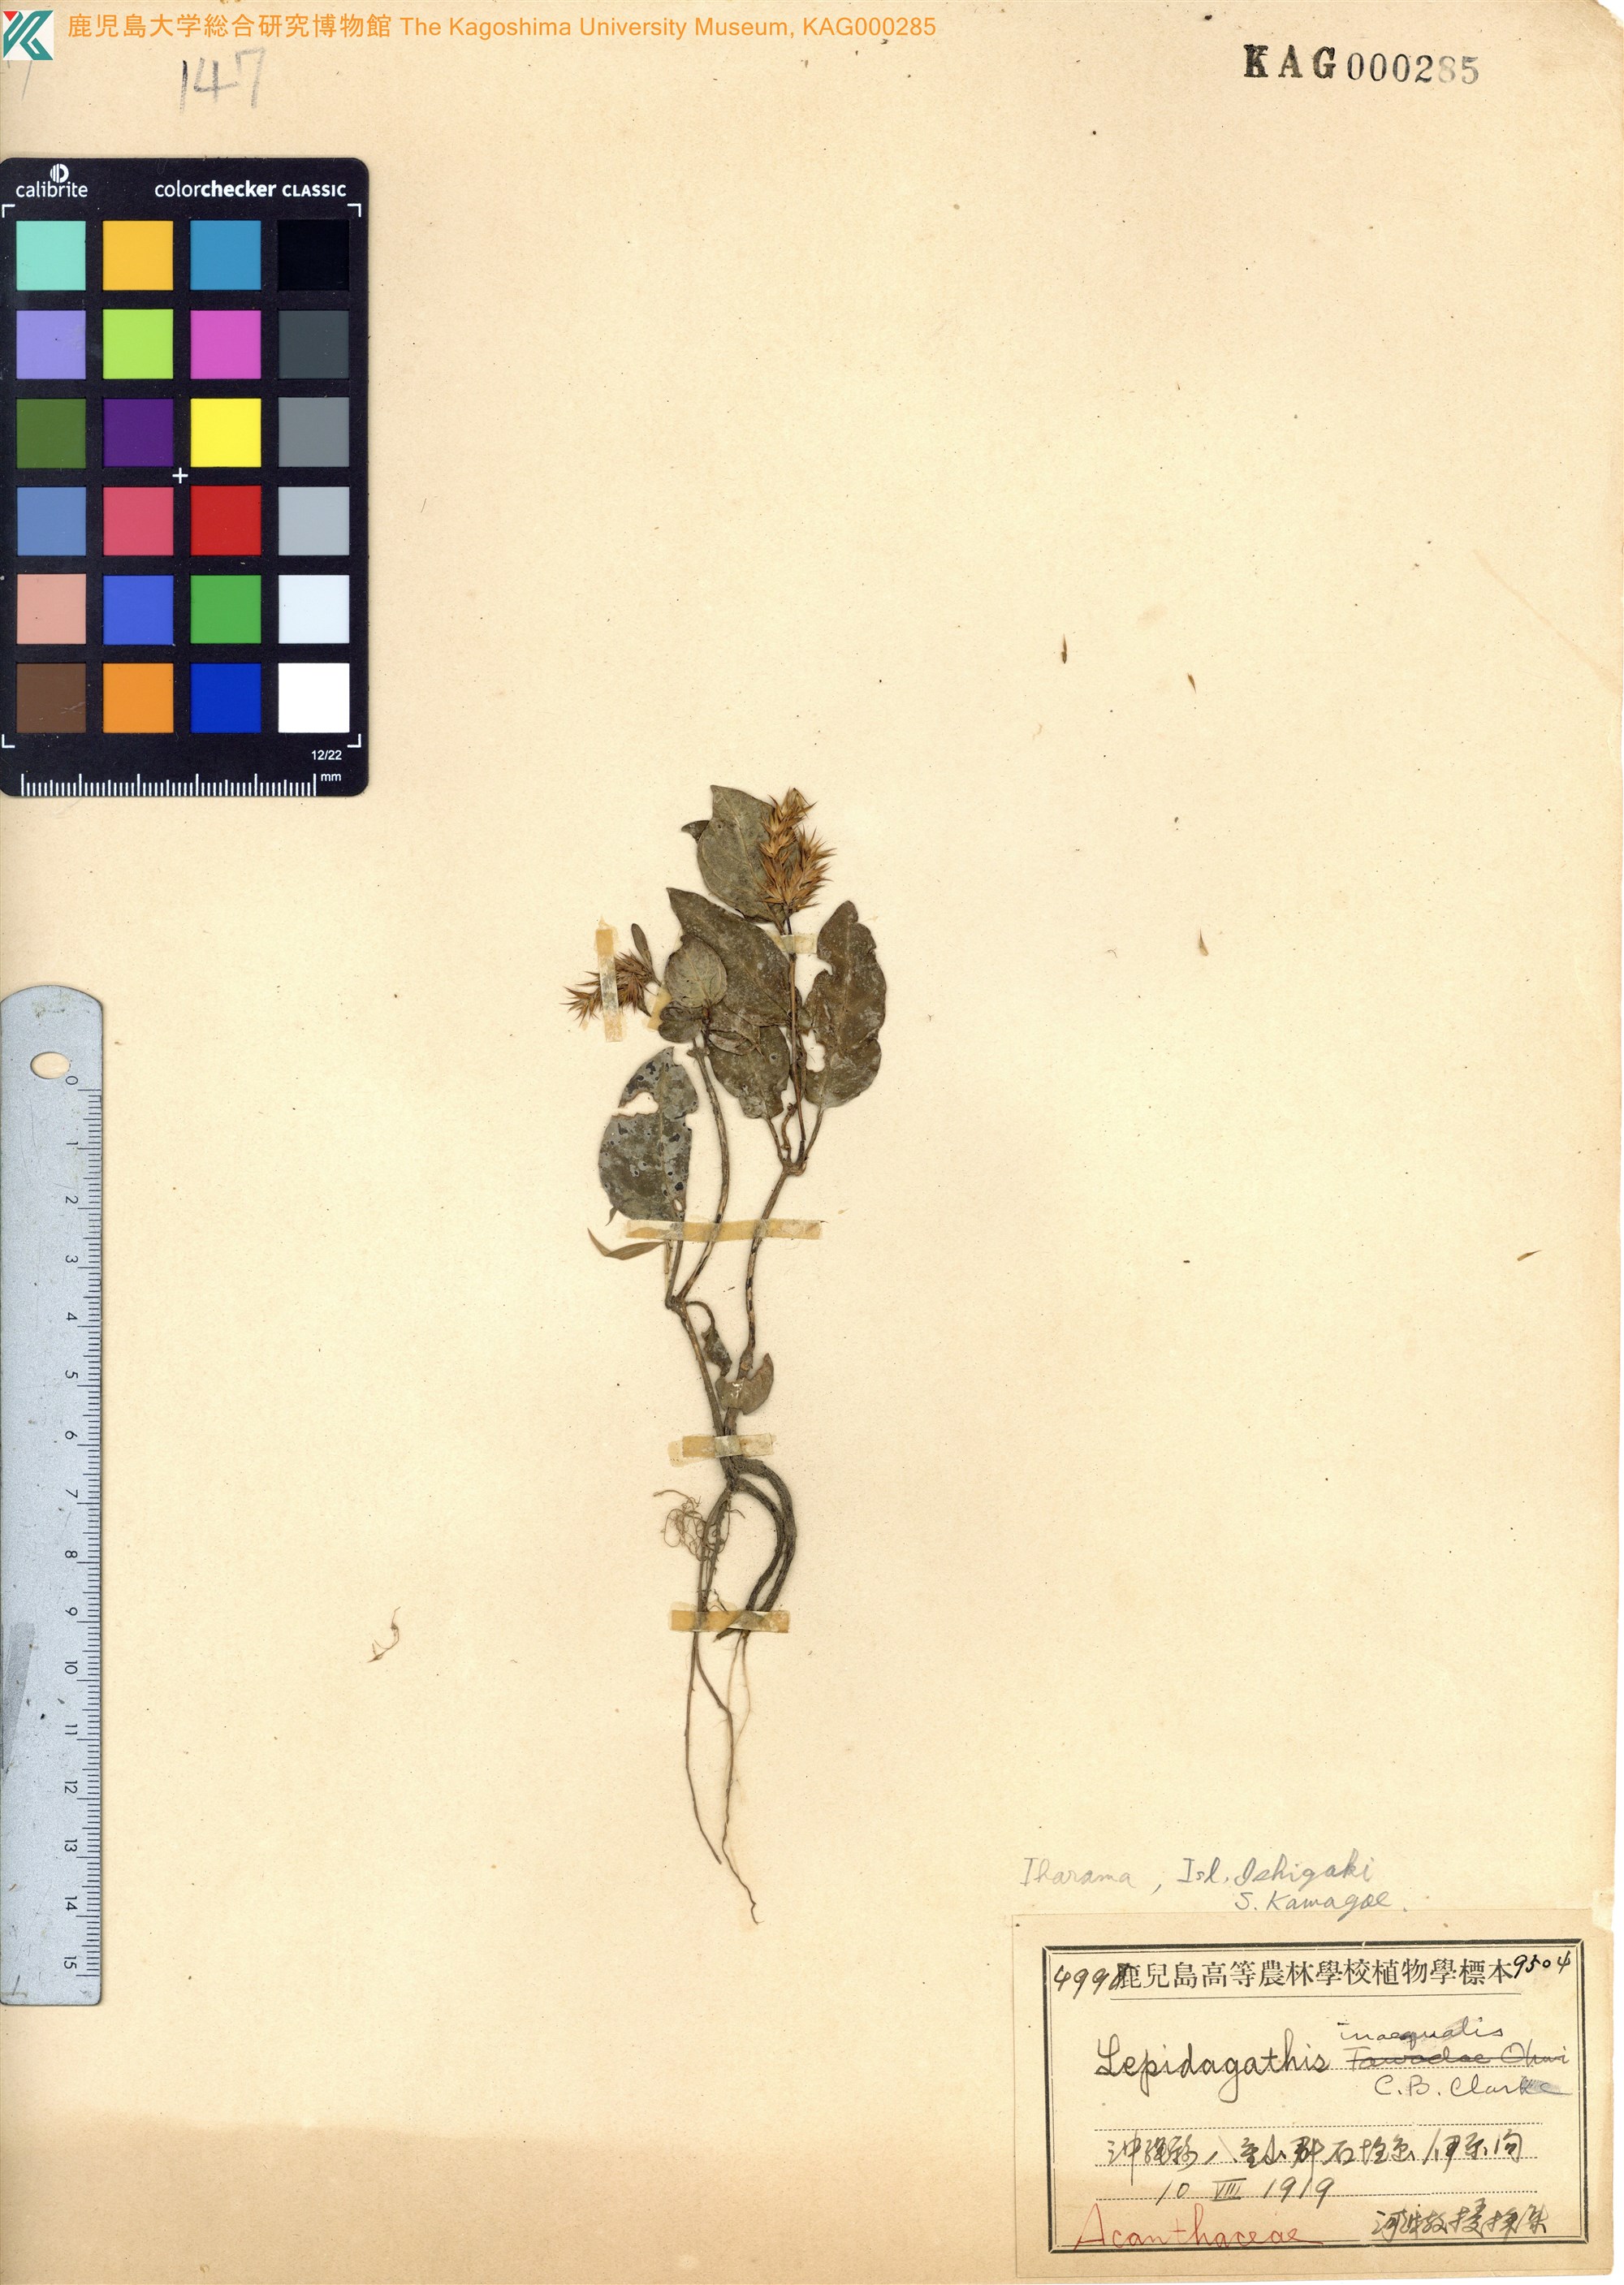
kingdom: Plantae
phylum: Tracheophyta
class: Magnoliopsida
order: Lamiales
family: Acanthaceae
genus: Lepidagathis
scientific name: Lepidagathis inaequalis
